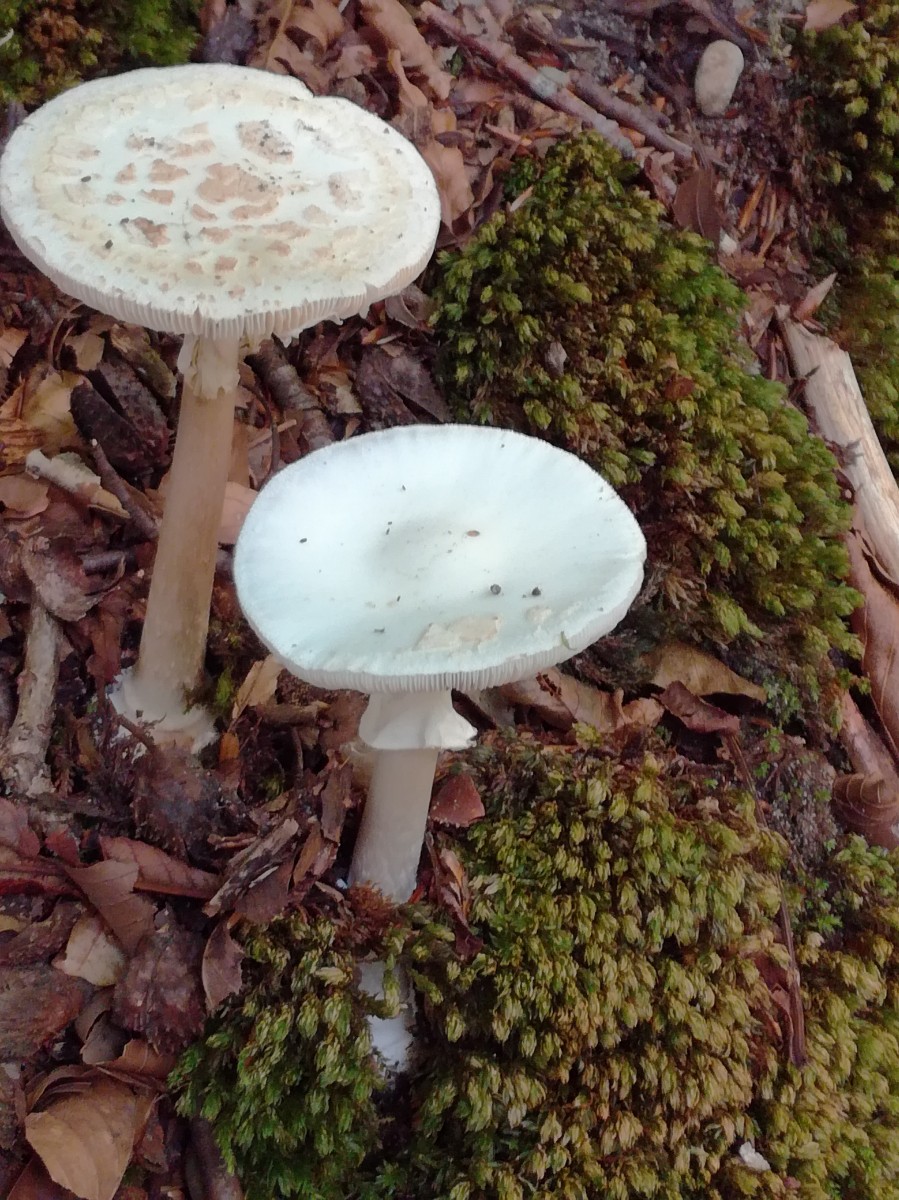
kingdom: Fungi
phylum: Basidiomycota
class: Agaricomycetes
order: Agaricales
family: Amanitaceae
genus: Amanita
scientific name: Amanita citrina
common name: kugleknoldet fluesvamp
